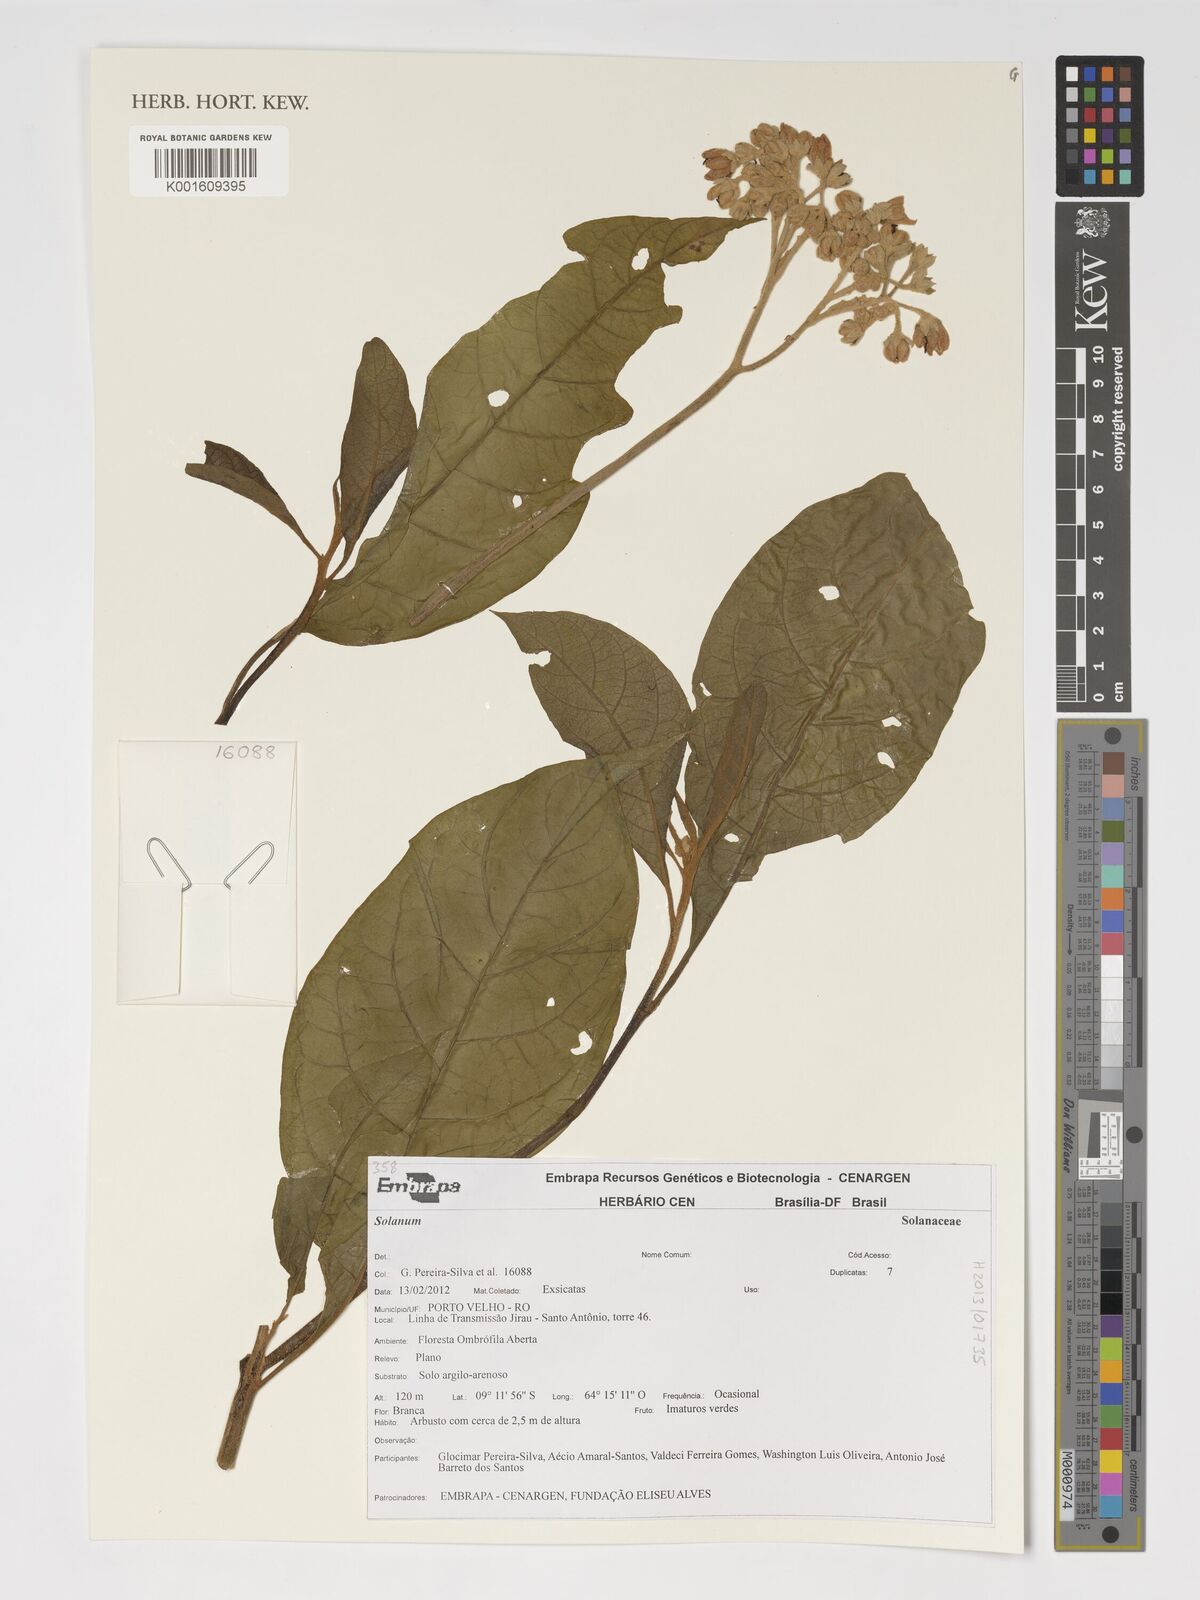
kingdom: Plantae
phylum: Tracheophyta
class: Magnoliopsida
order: Solanales
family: Solanaceae
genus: Solanum
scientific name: Solanum
